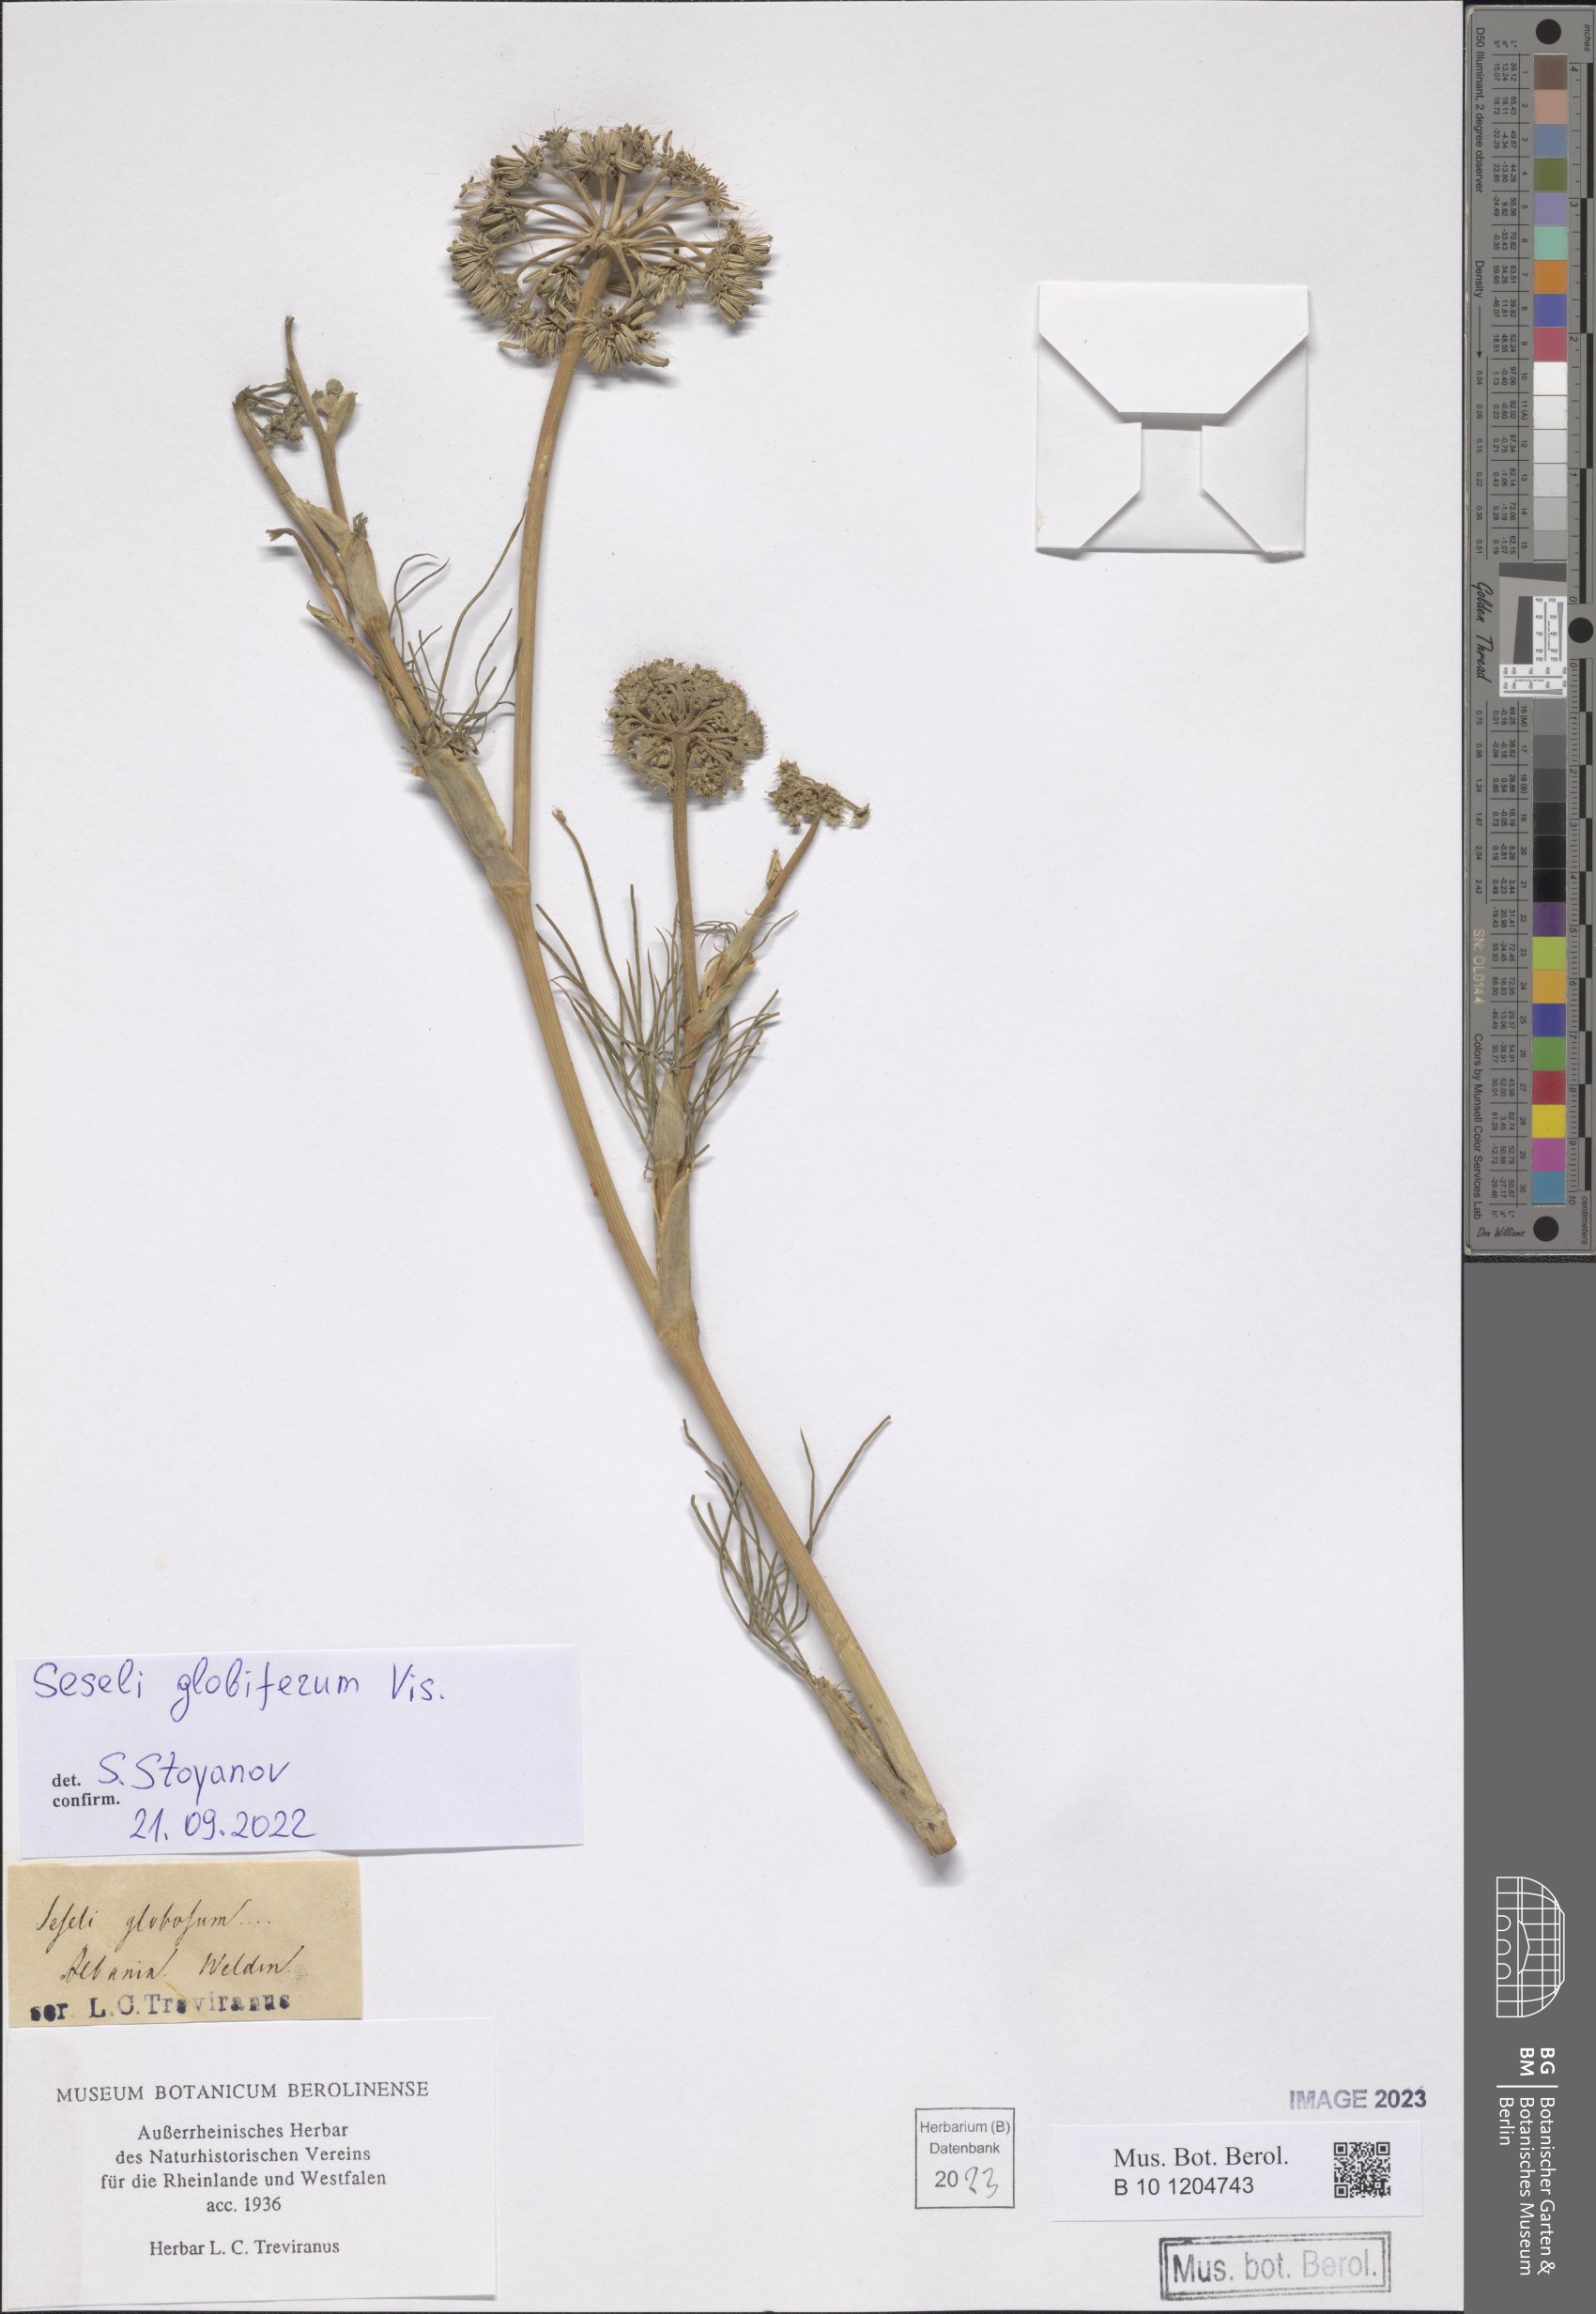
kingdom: Plantae
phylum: Tracheophyta
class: Magnoliopsida
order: Apiales
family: Apiaceae
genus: Seseli
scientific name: Seseli globiferum
